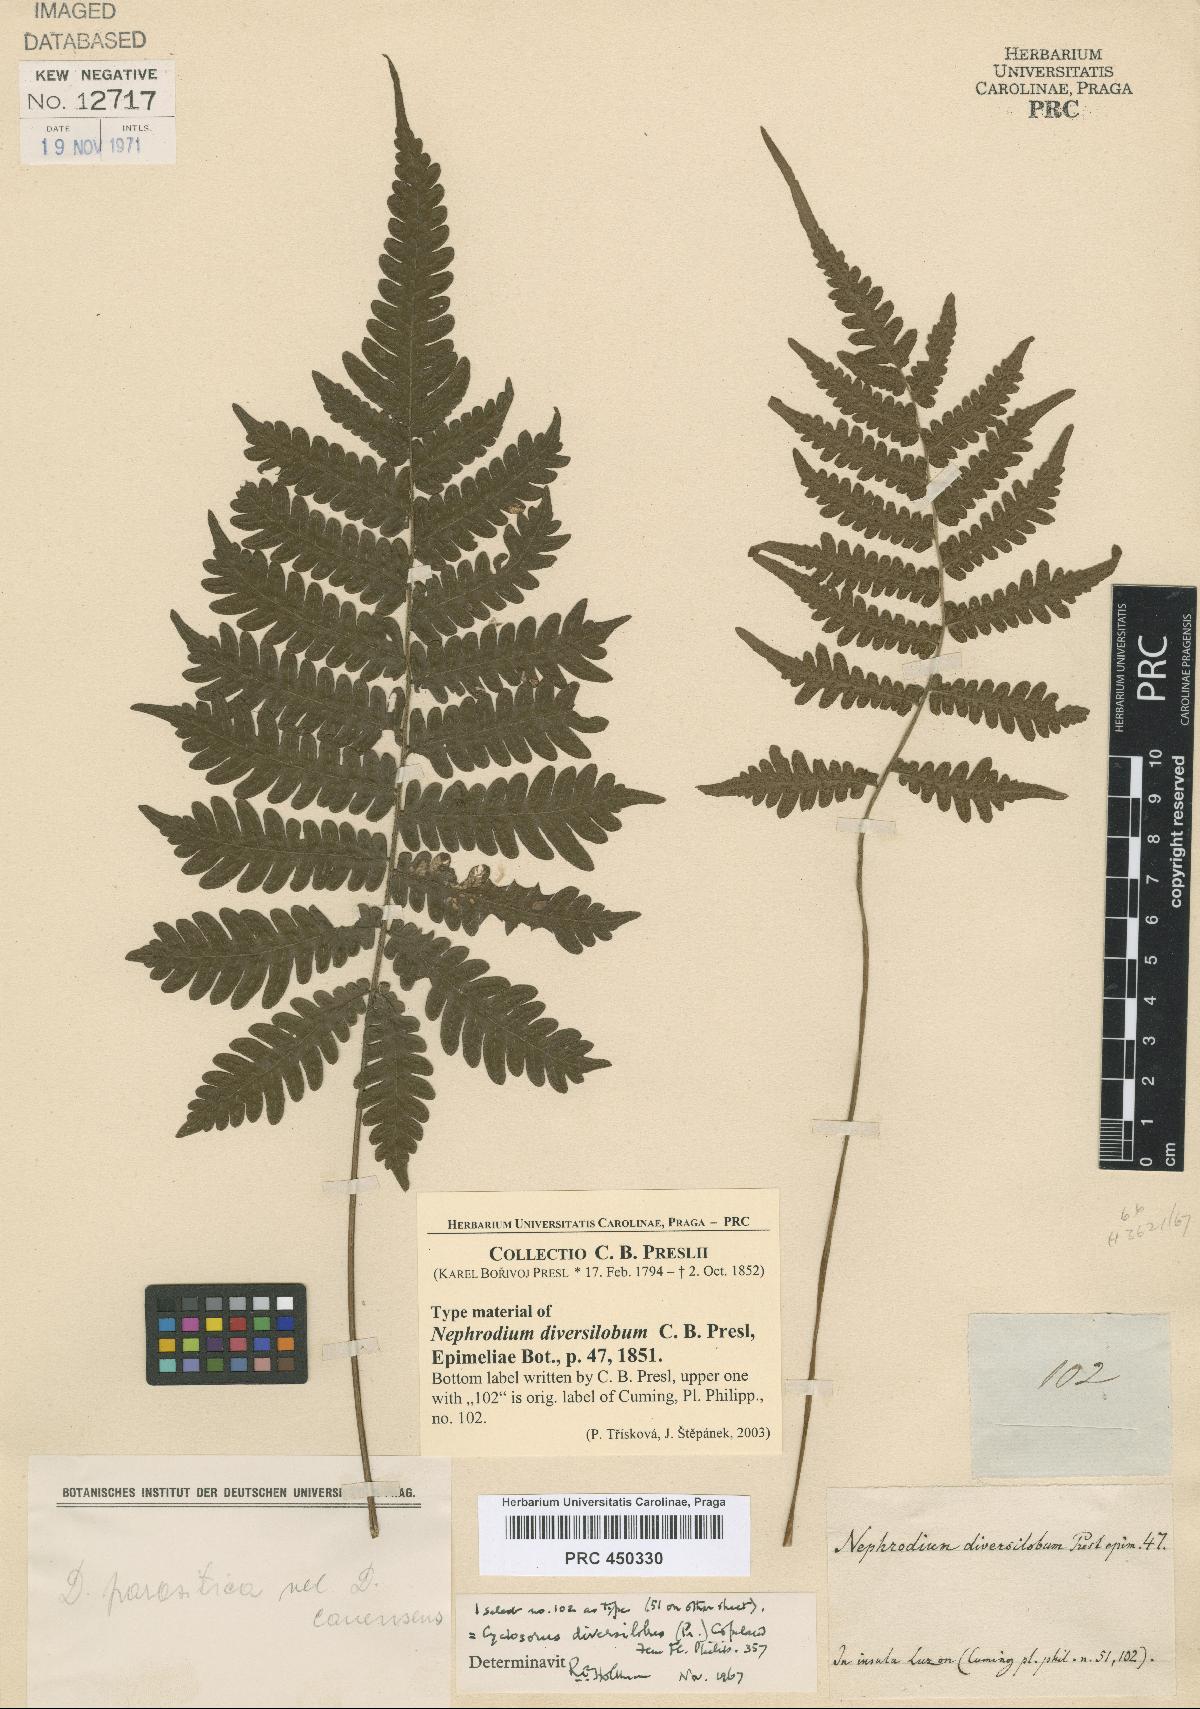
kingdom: Plantae
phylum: Tracheophyta
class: Polypodiopsida
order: Polypodiales
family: Thelypteridaceae
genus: Sphaerostephanos
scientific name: Sphaerostephanos diversilobus
